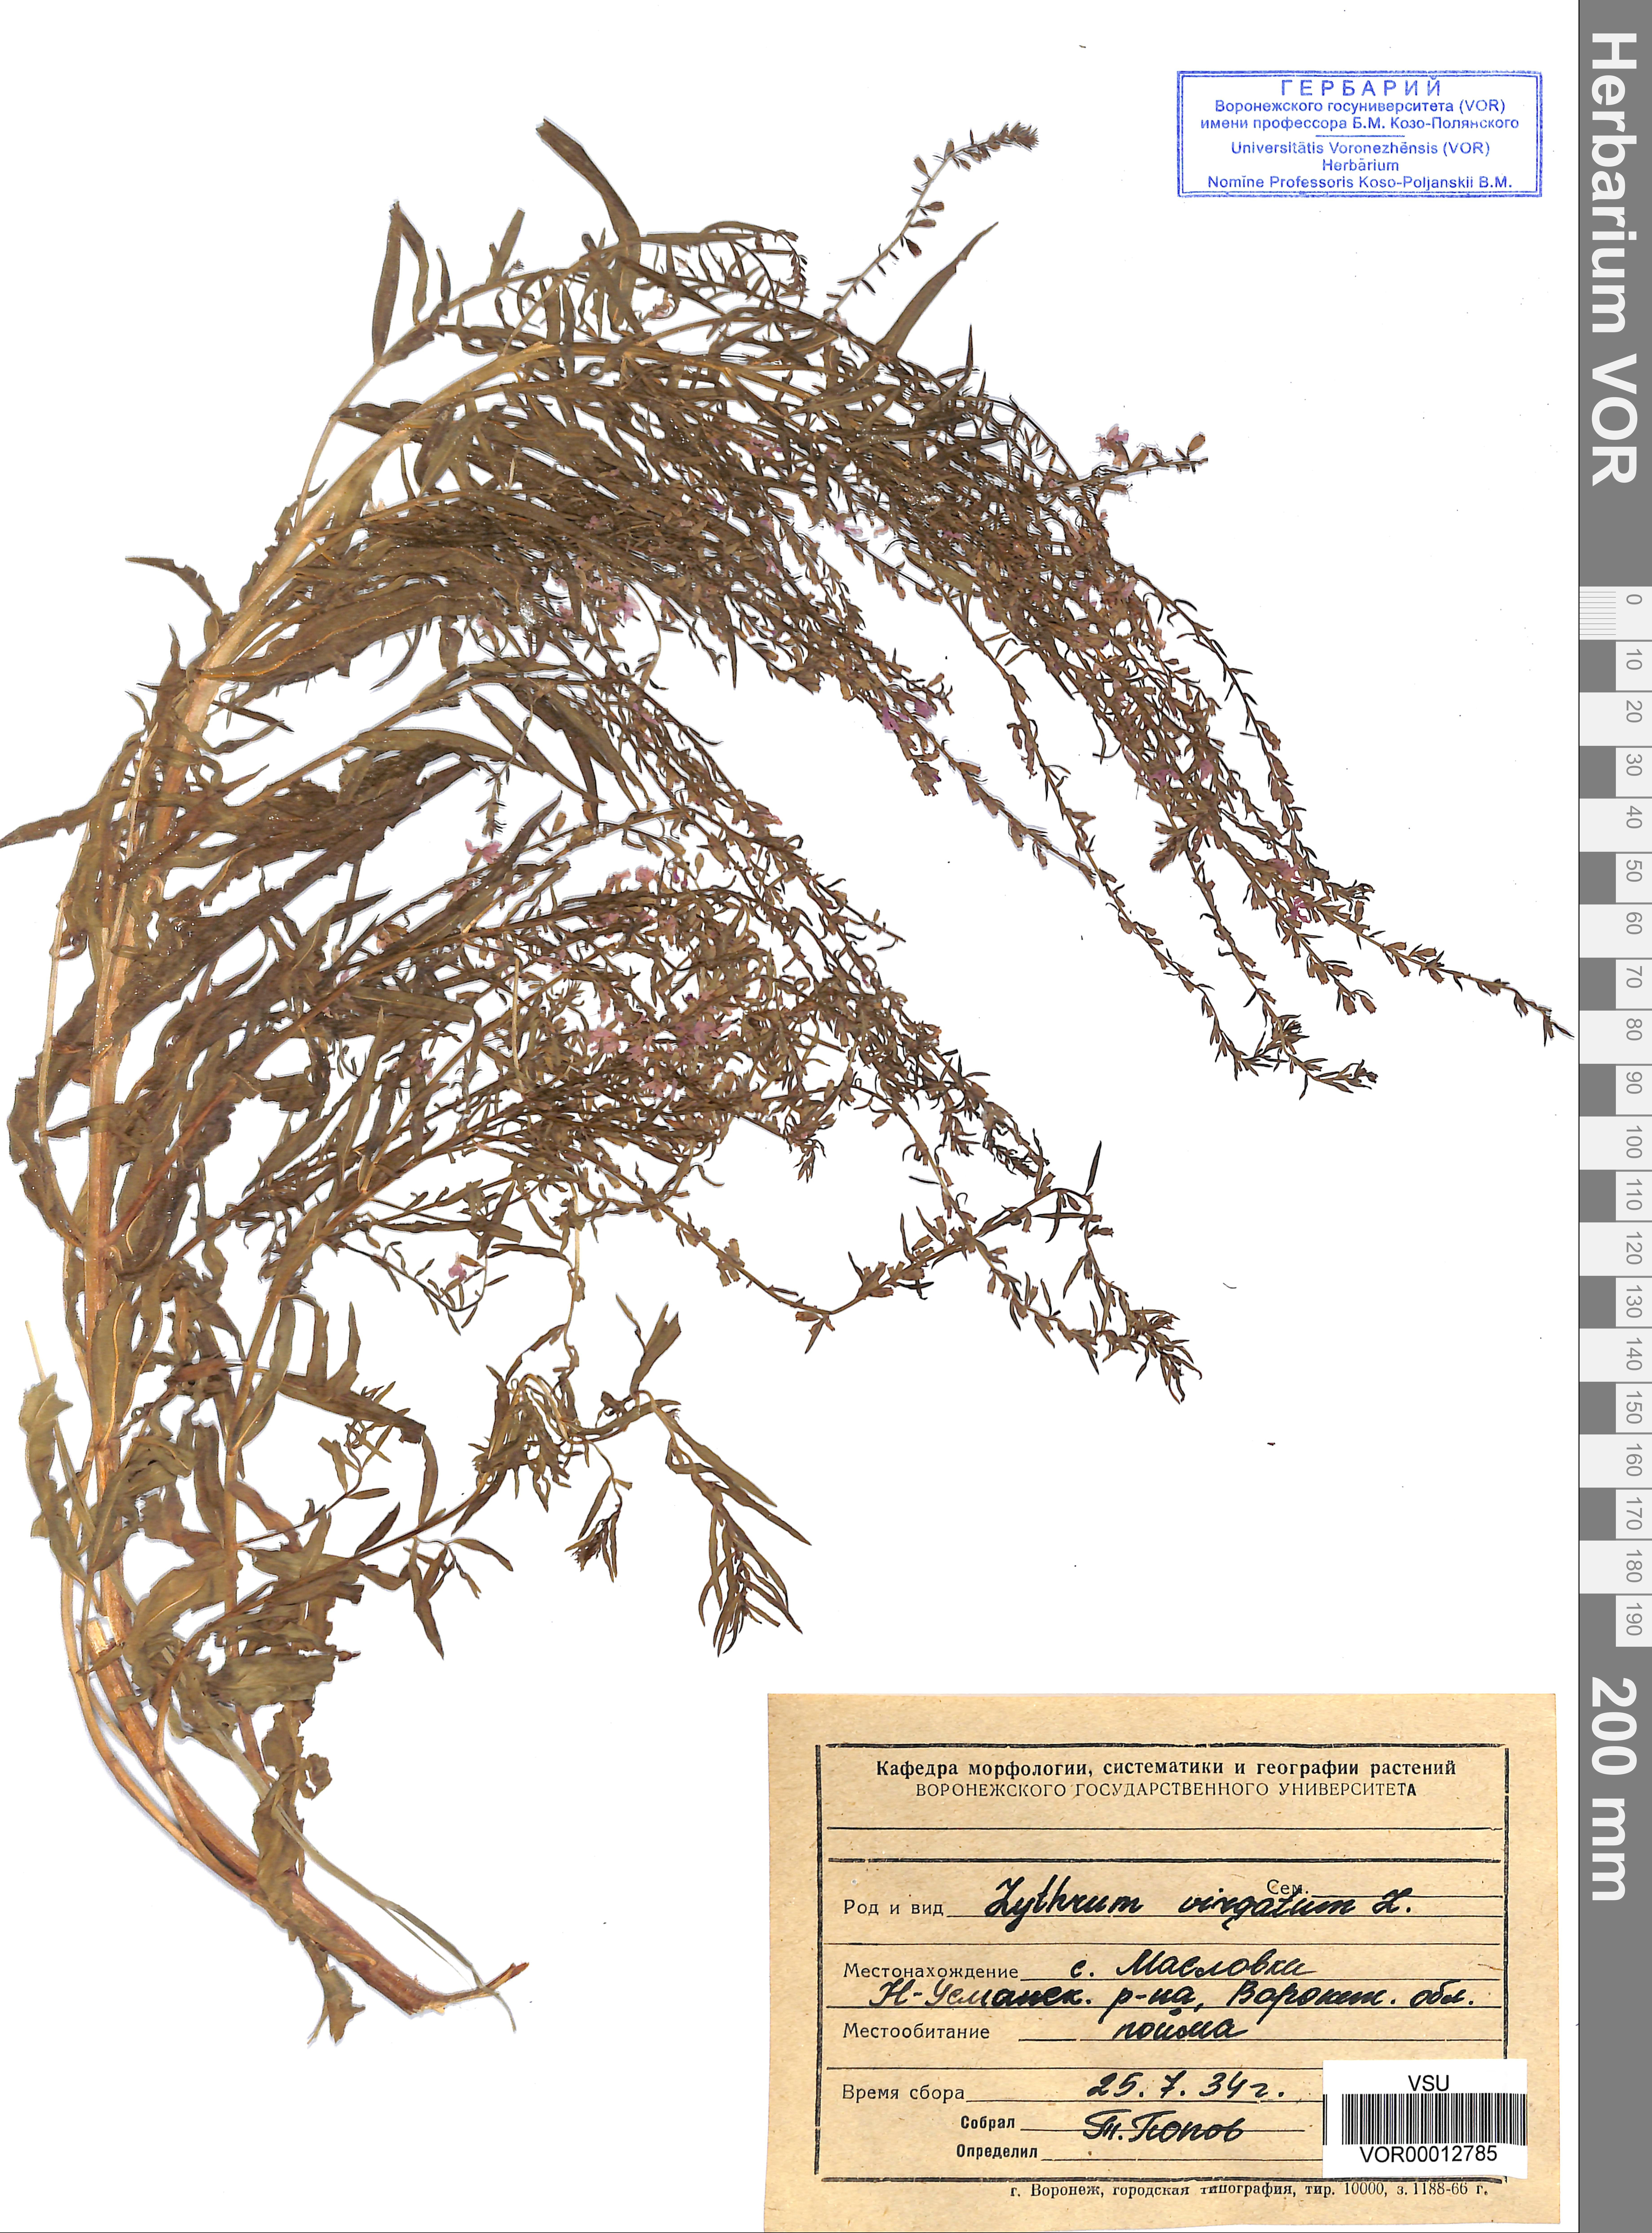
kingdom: Plantae
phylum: Tracheophyta
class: Magnoliopsida
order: Myrtales
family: Lythraceae
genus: Lythrum
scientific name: Lythrum virgatum
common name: European wand loosestrife
